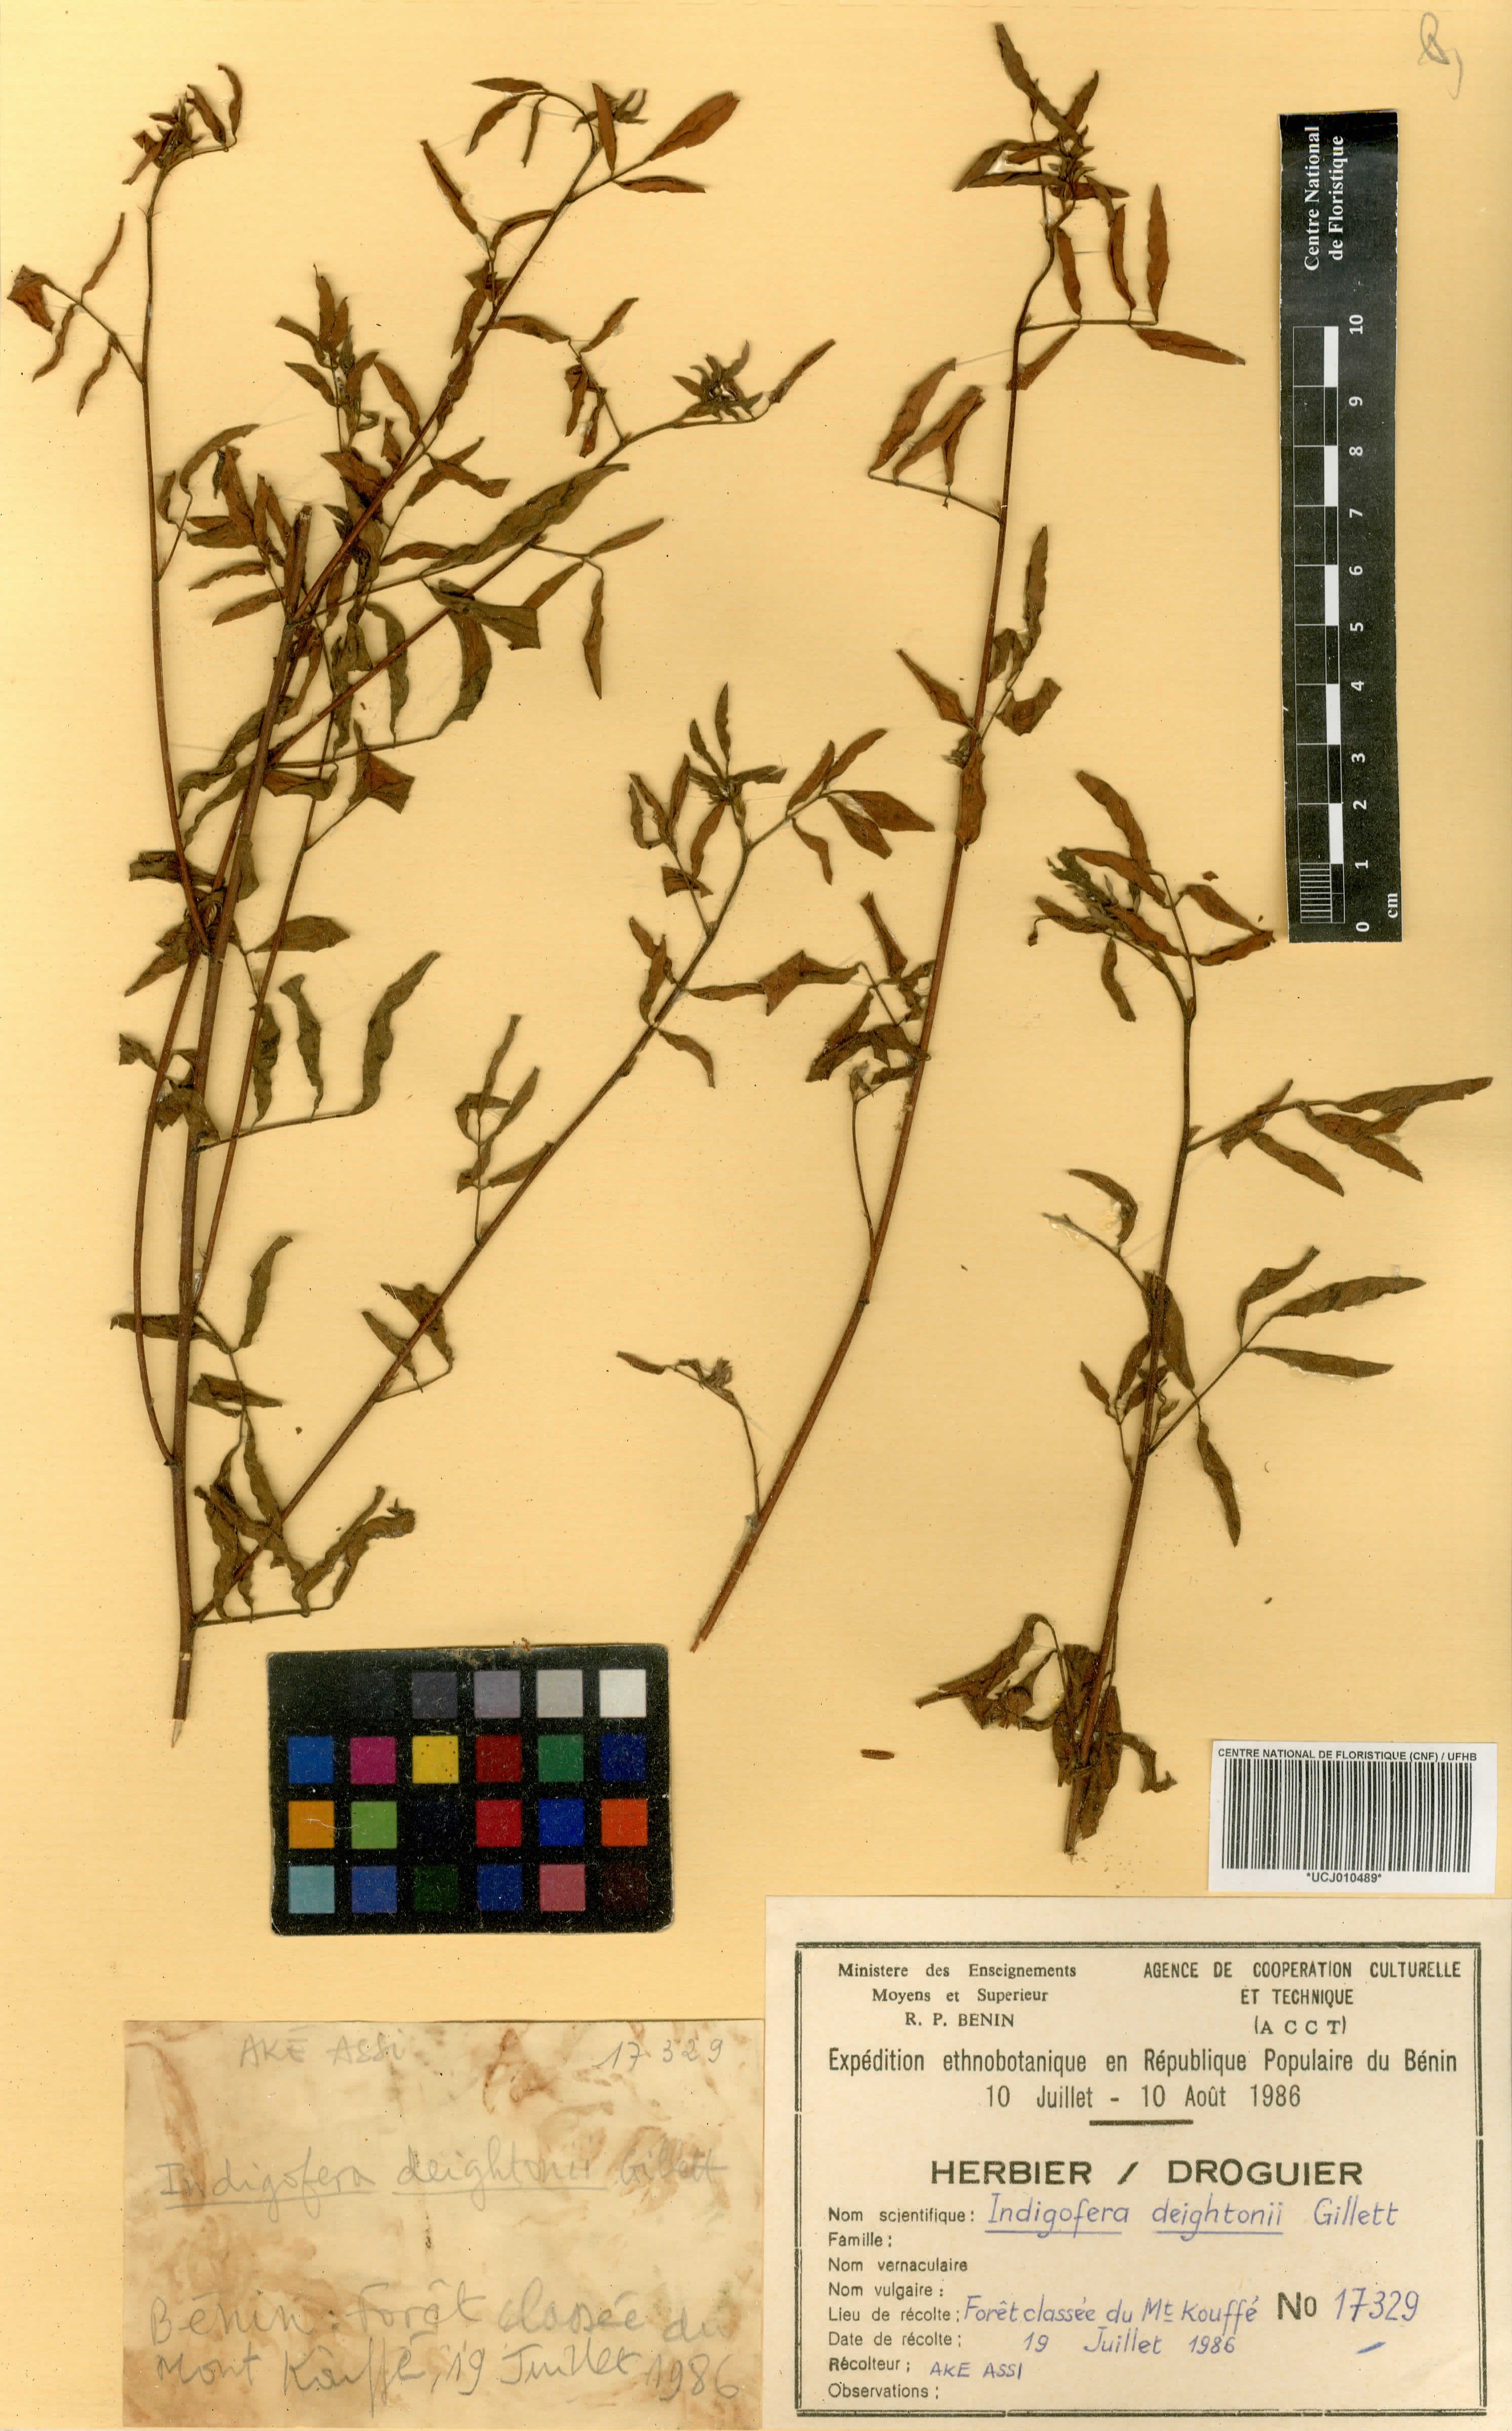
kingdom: Plantae
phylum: Tracheophyta
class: Magnoliopsida
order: Fabales
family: Fabaceae
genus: Indigofera
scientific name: Indigofera deightonii
